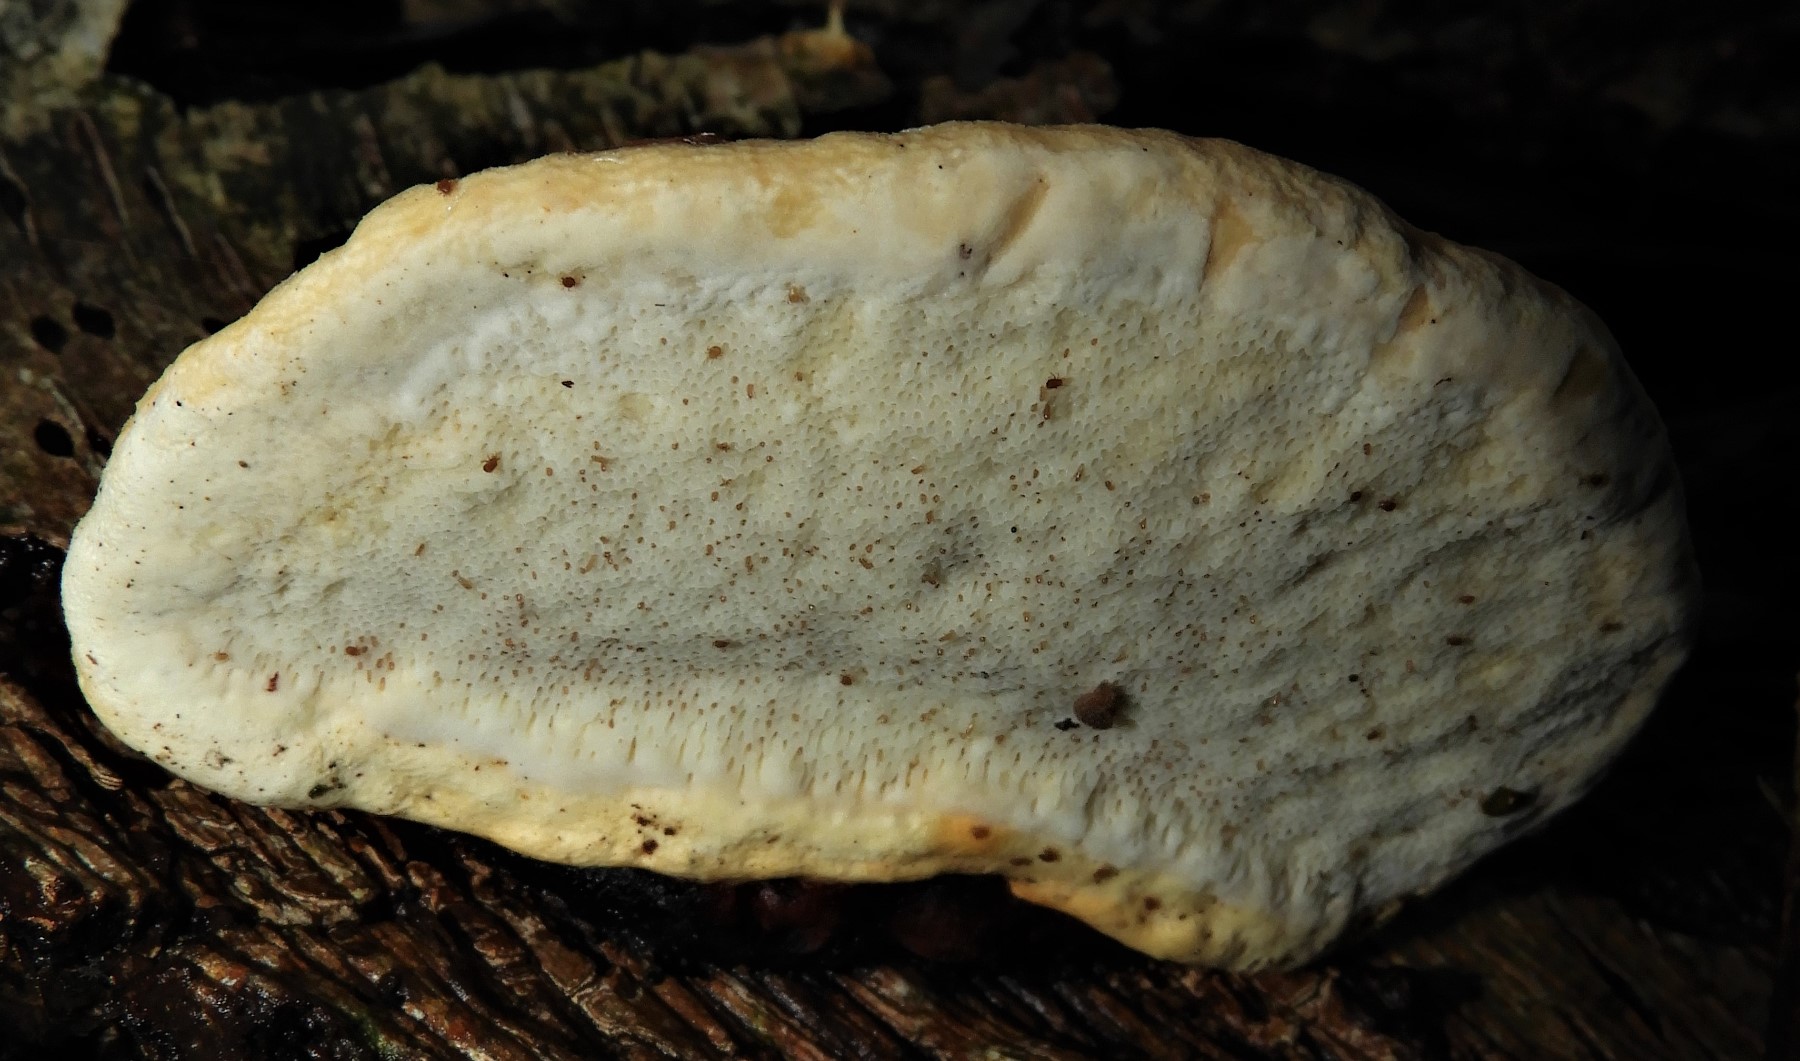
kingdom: Fungi
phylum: Basidiomycota
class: Agaricomycetes
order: Polyporales
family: Fomitopsidaceae
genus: Fomitopsis
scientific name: Fomitopsis pinicola
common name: randbæltet hovporesvamp
